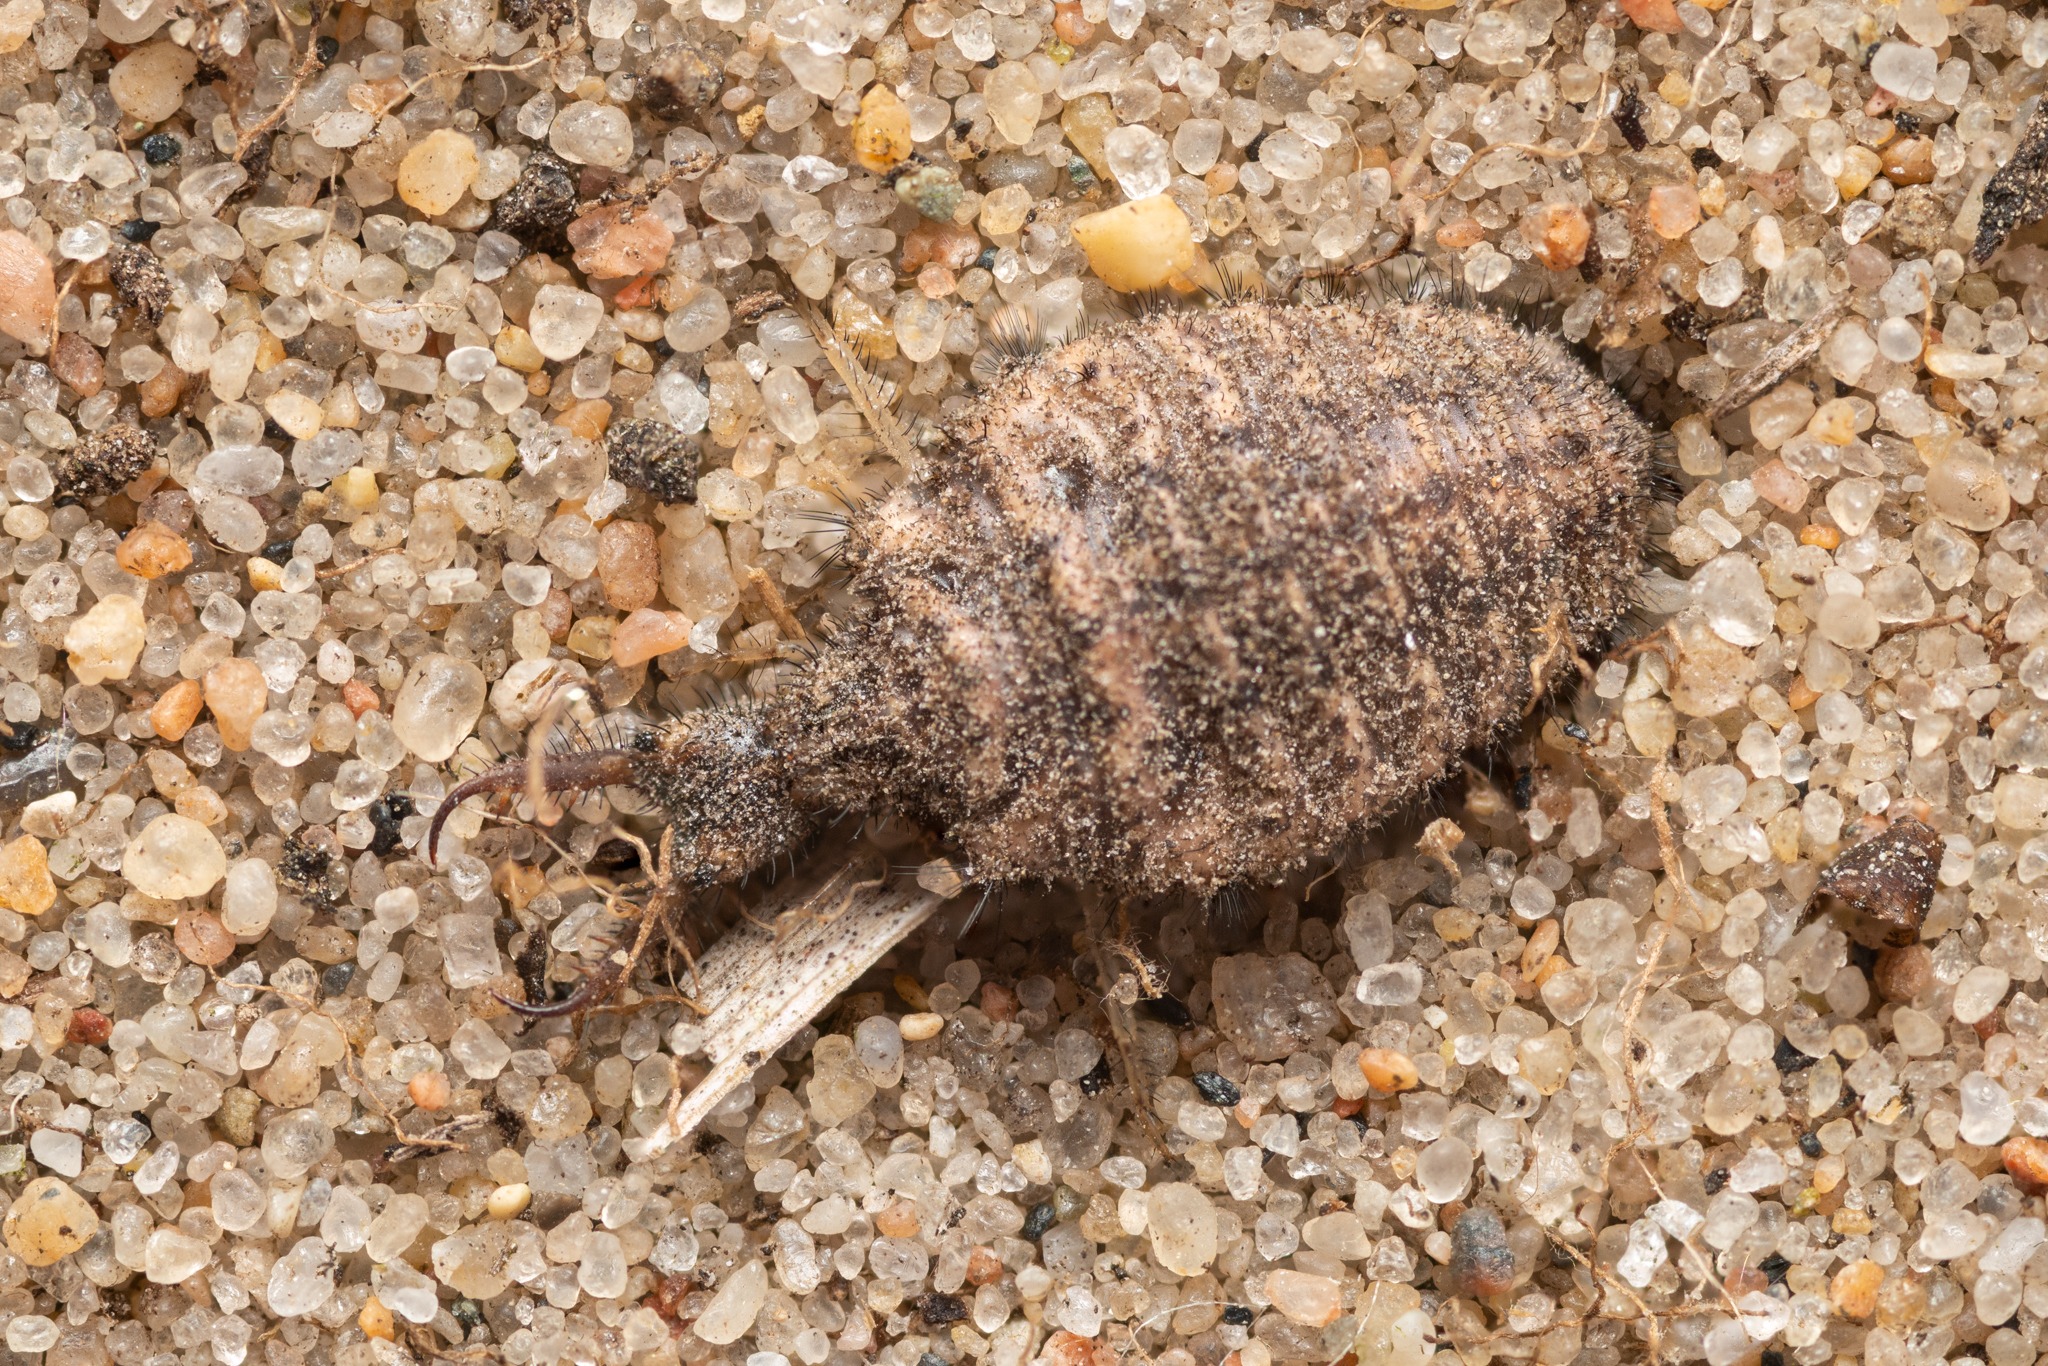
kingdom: Animalia
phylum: Arthropoda
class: Insecta
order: Neuroptera
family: Myrmeleontidae
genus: Myrmeleon
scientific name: Myrmeleon formicarius
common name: Stor myreløve
